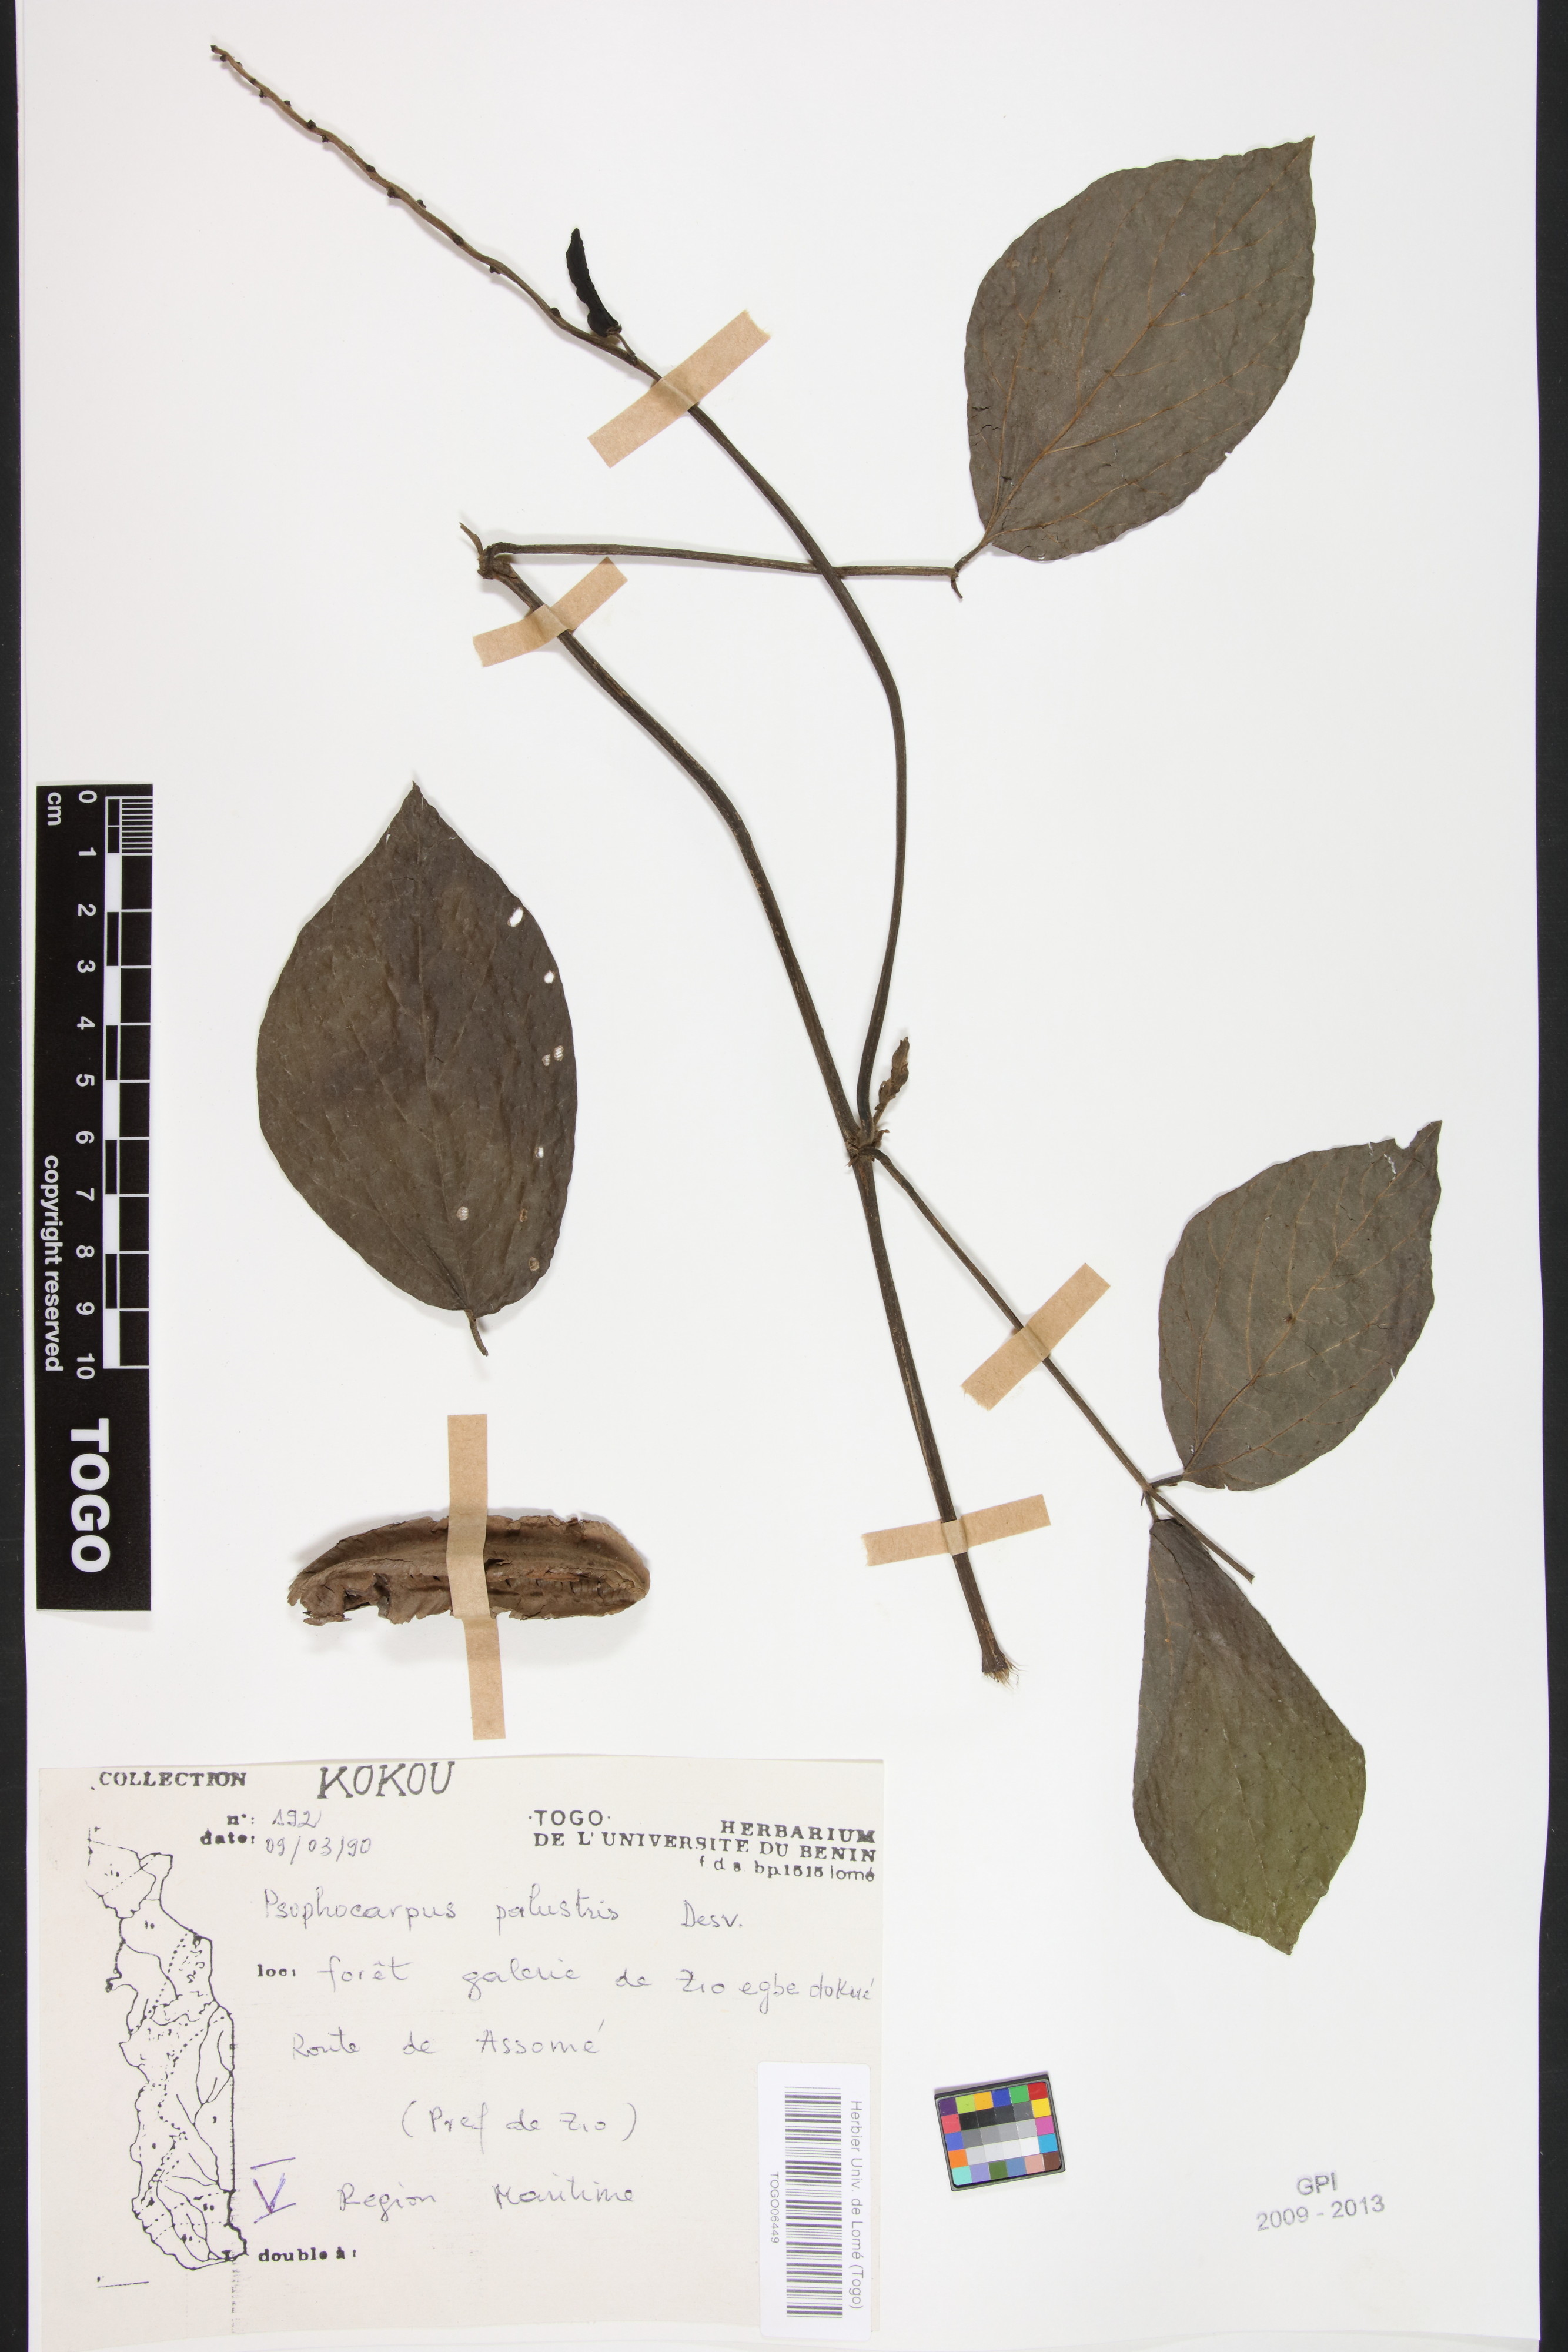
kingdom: Plantae
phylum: Tracheophyta
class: Magnoliopsida
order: Fabales
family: Fabaceae
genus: Psophocarpus
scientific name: Psophocarpus palustris
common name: African winged-bean
